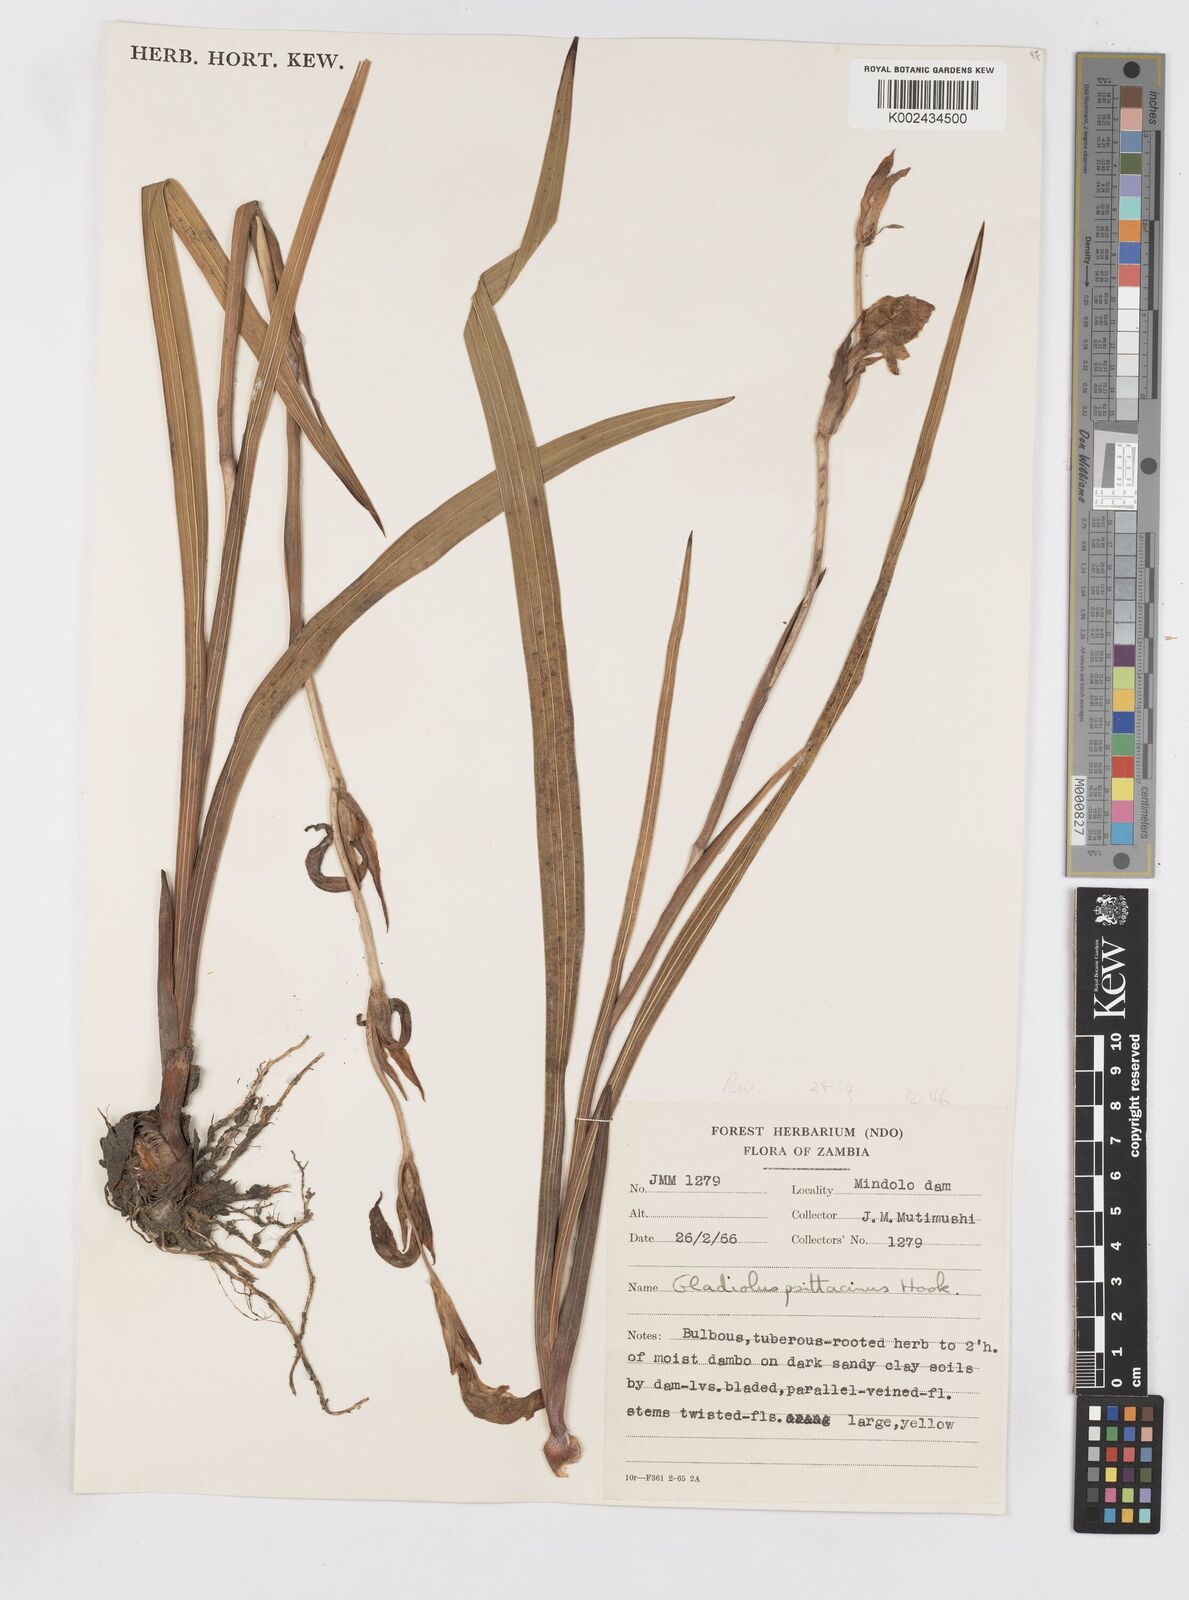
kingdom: Plantae
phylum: Tracheophyta
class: Liliopsida
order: Asparagales
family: Iridaceae
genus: Gladiolus
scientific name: Gladiolus dalenii
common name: Cornflag
